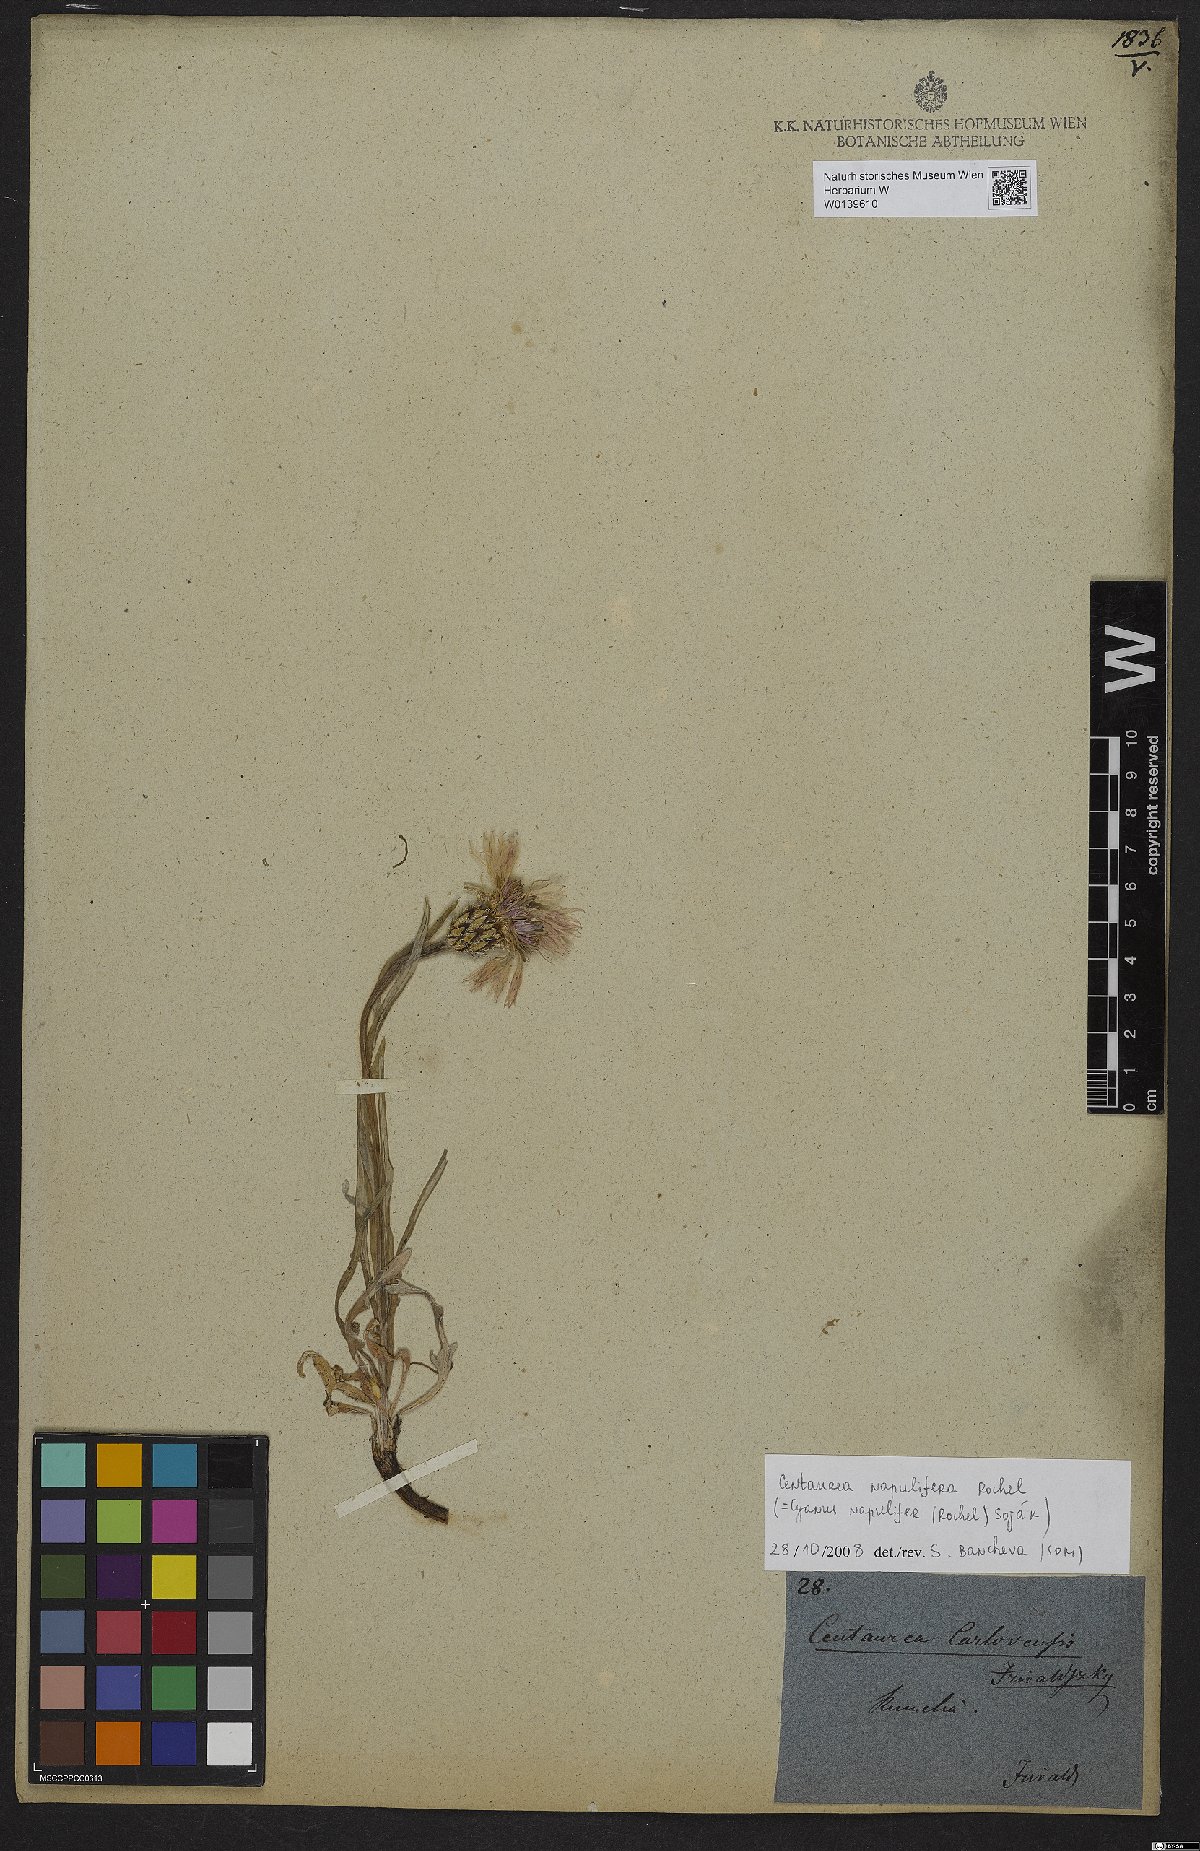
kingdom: Plantae
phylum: Tracheophyta
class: Magnoliopsida
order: Asterales
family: Asteraceae
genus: Centaurea
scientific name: Centaurea napulifera
